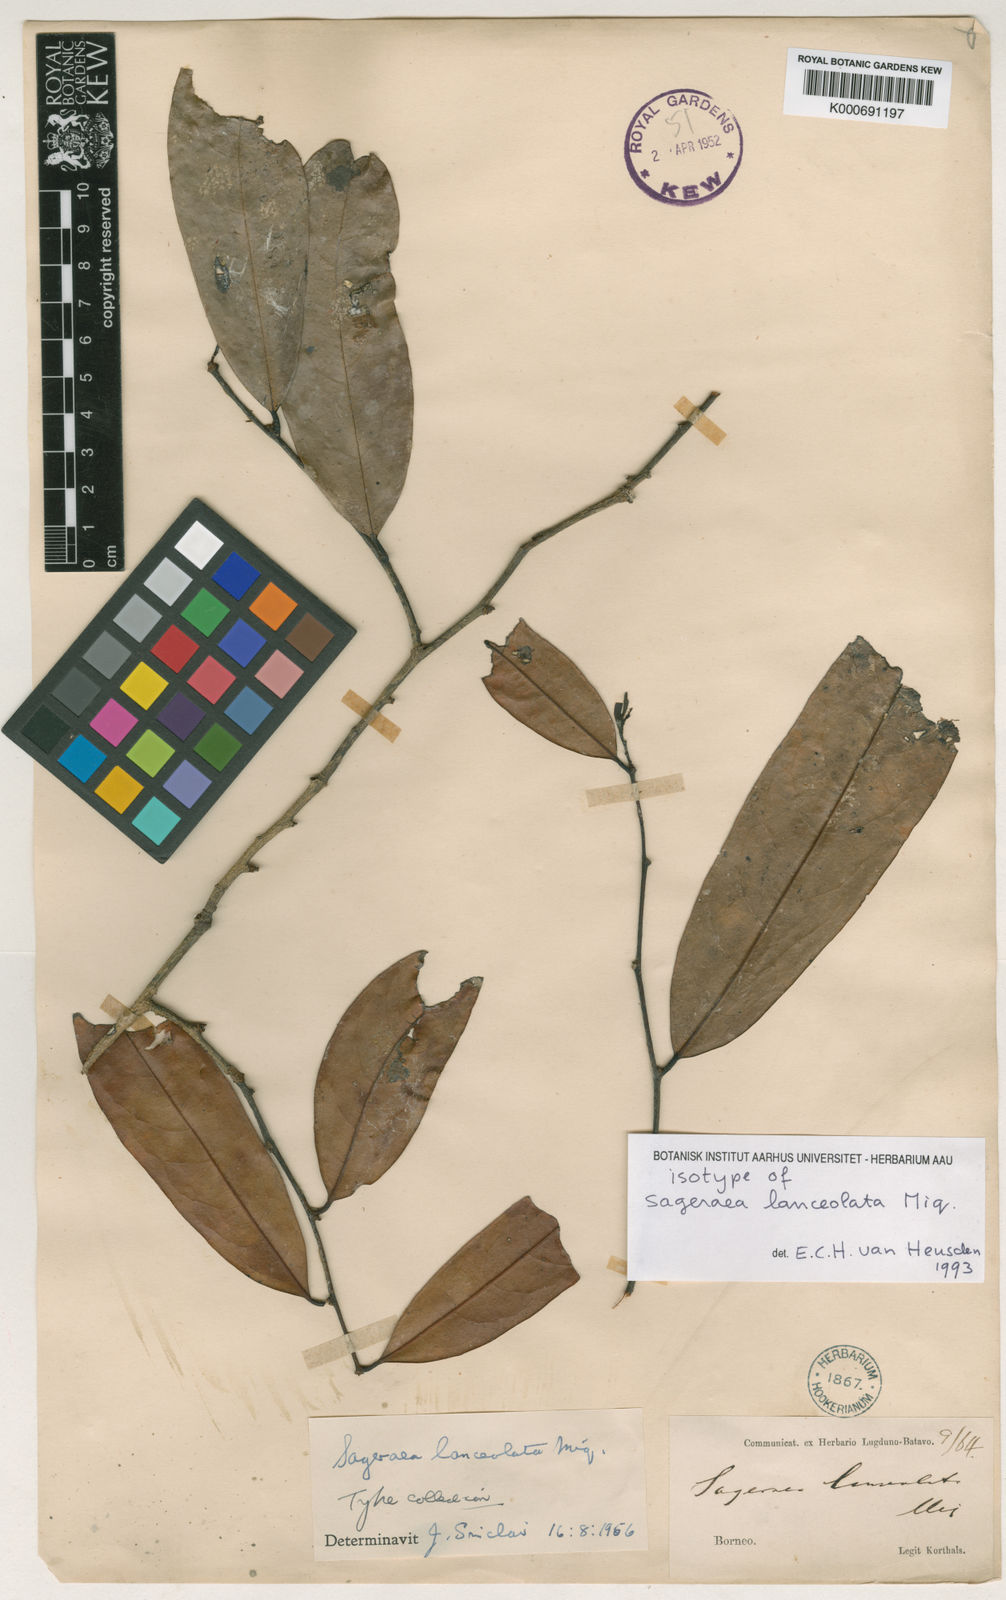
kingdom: Plantae
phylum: Tracheophyta
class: Magnoliopsida
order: Magnoliales
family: Annonaceae
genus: Sageraea
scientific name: Sageraea lanceolata
